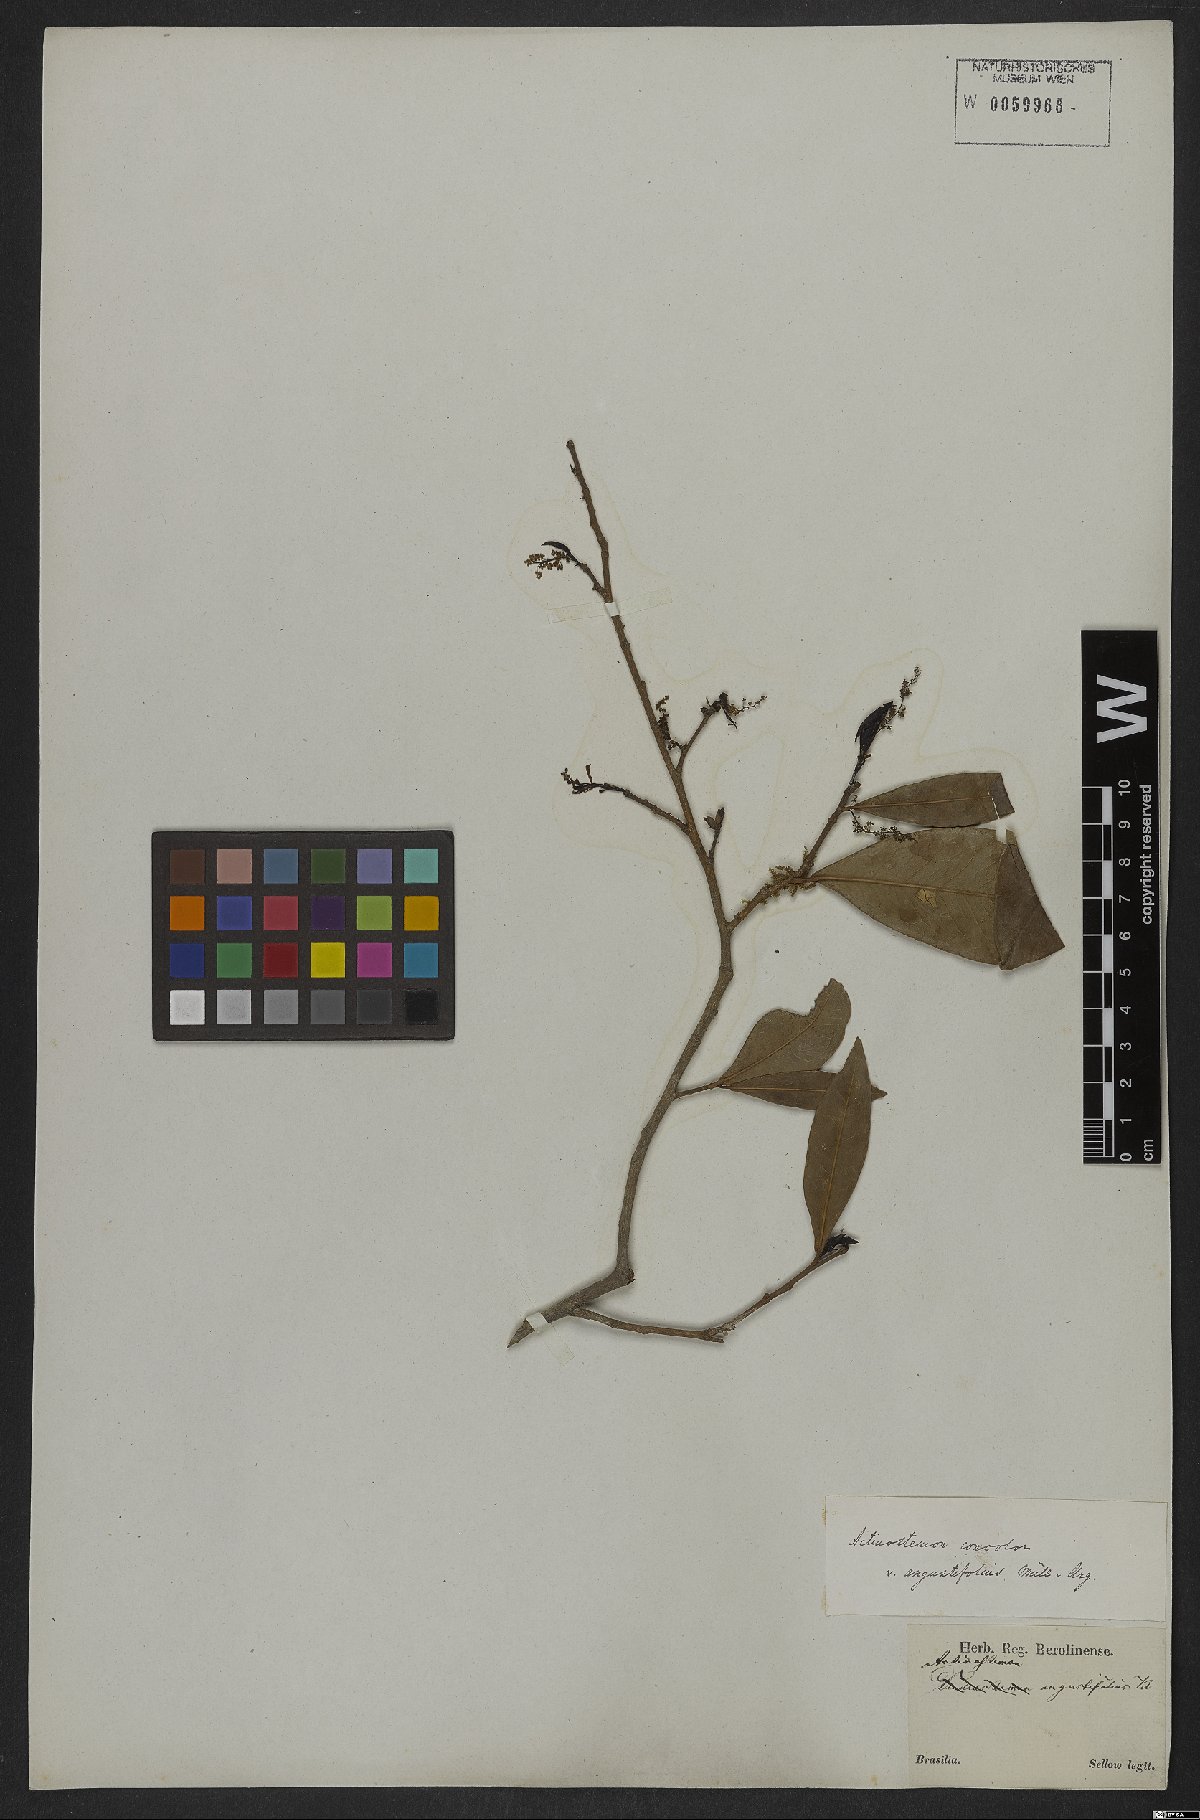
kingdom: Plantae
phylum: Tracheophyta
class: Magnoliopsida
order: Malpighiales
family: Euphorbiaceae
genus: Actinostemon
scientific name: Actinostemon concolor
